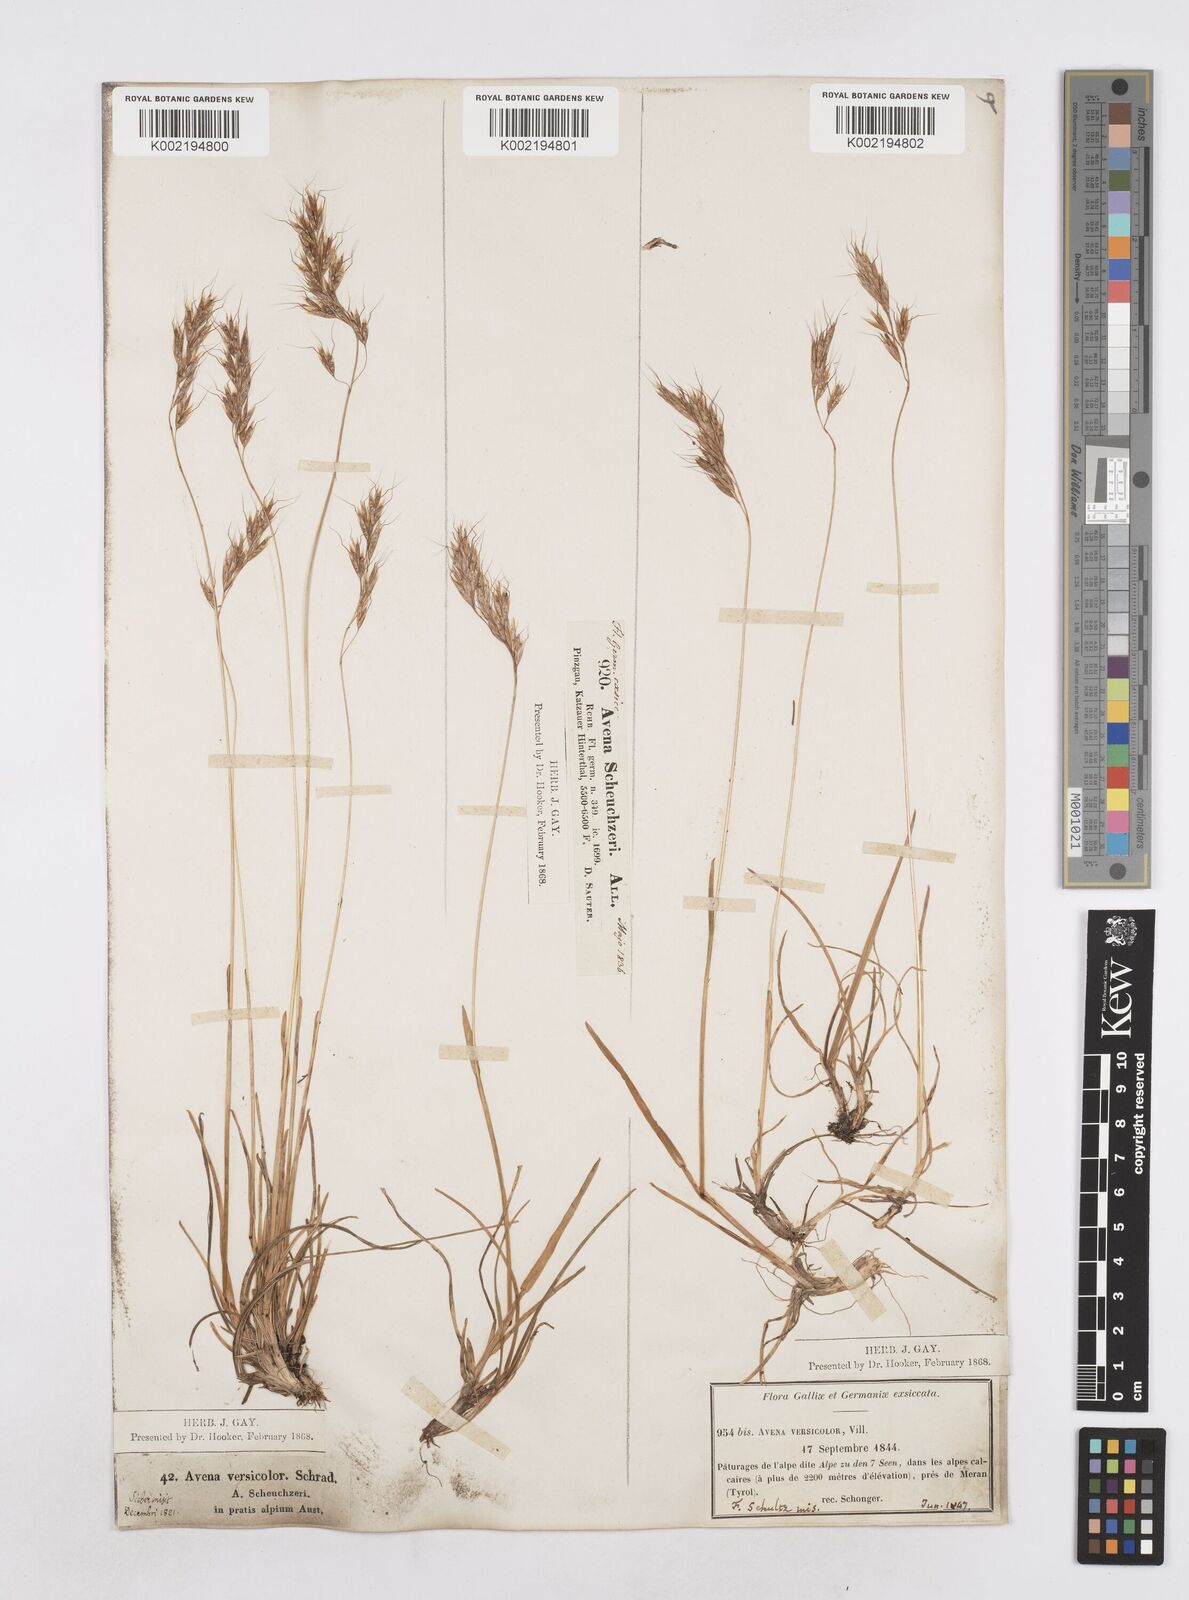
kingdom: Plantae
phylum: Tracheophyta
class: Liliopsida
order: Poales
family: Poaceae
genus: Helictochloa
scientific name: Helictochloa versicolor
